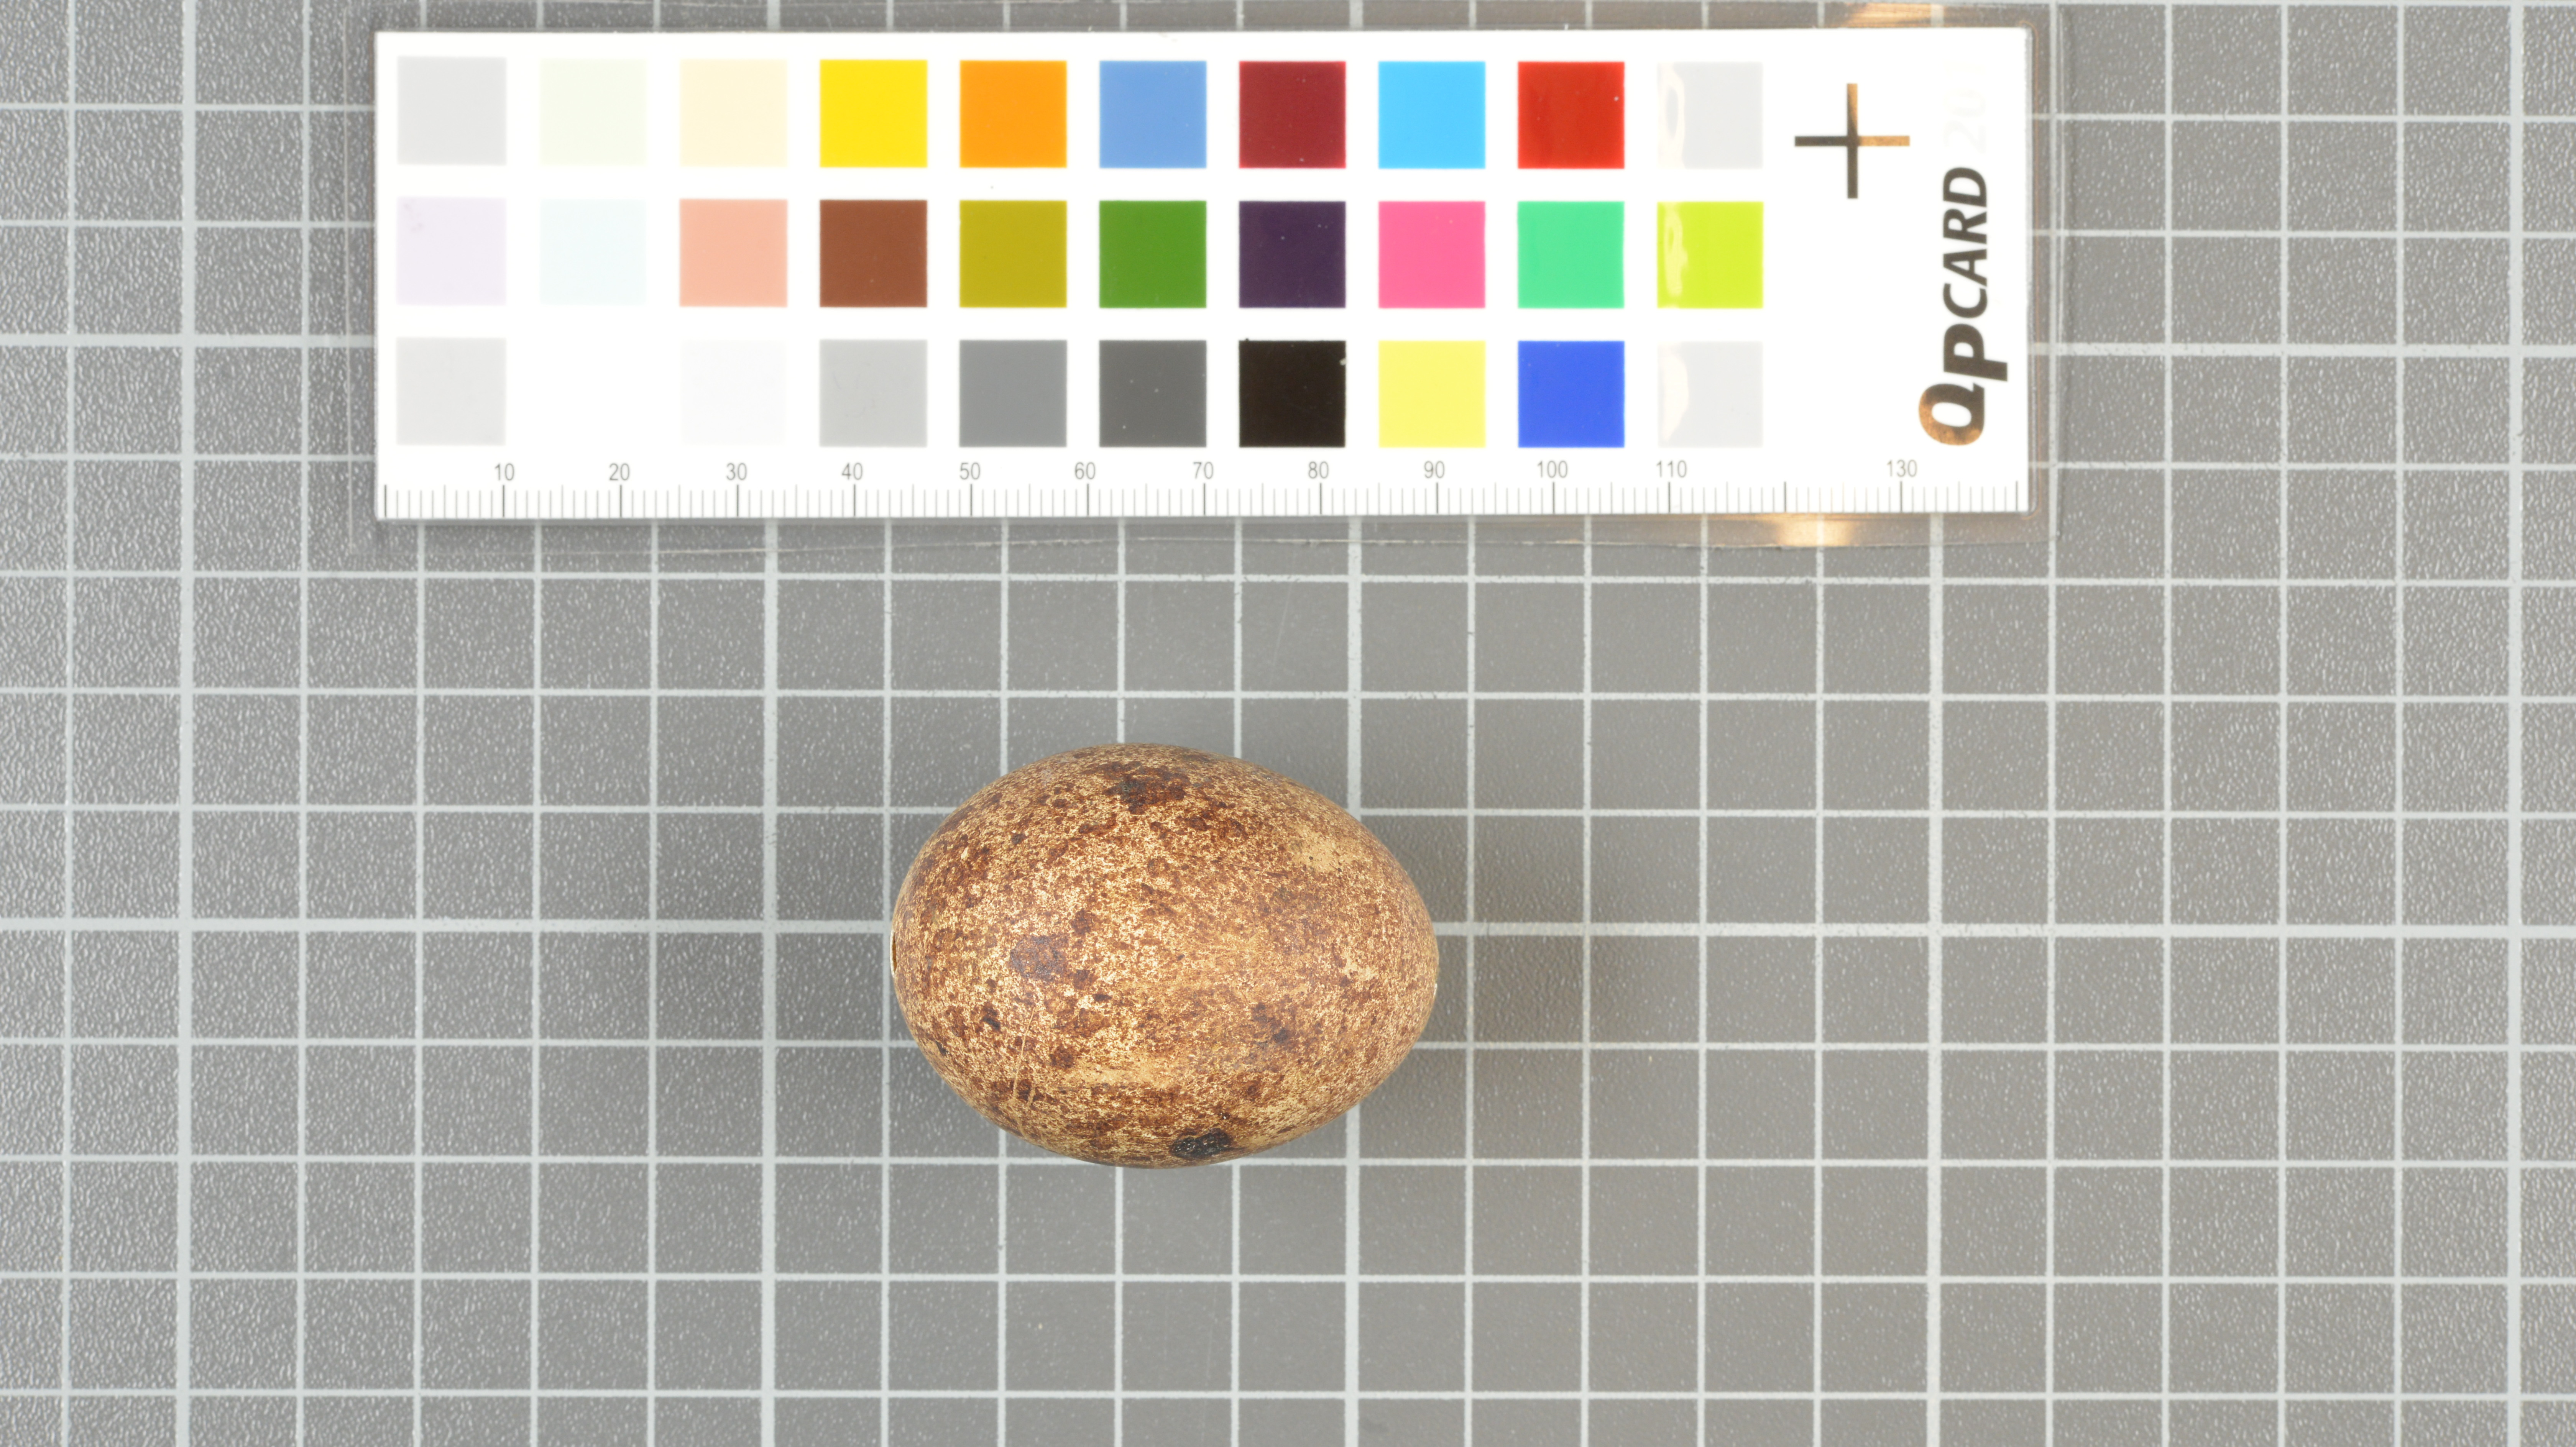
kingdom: Animalia
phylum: Chordata
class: Aves
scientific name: Aves
